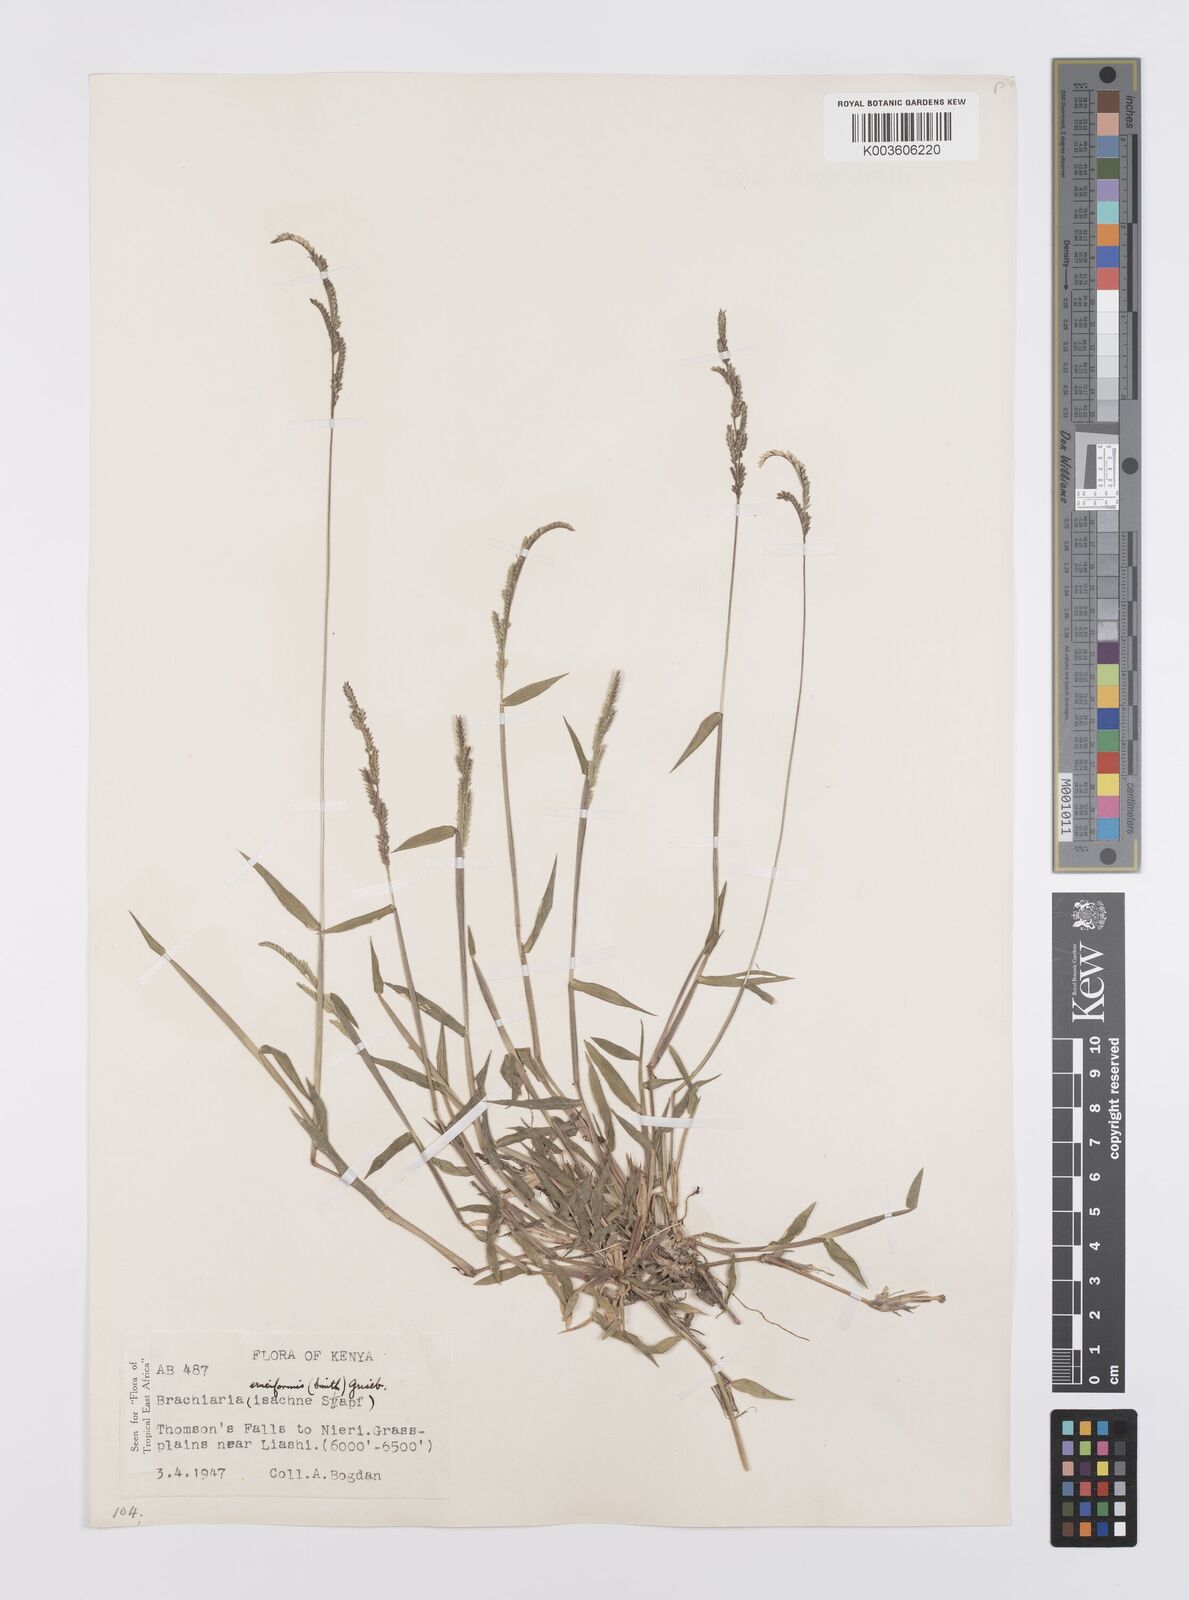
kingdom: Plantae
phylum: Tracheophyta
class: Liliopsida
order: Poales
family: Poaceae
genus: Moorochloa
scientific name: Moorochloa eruciformis
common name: Sweet signalgrass
